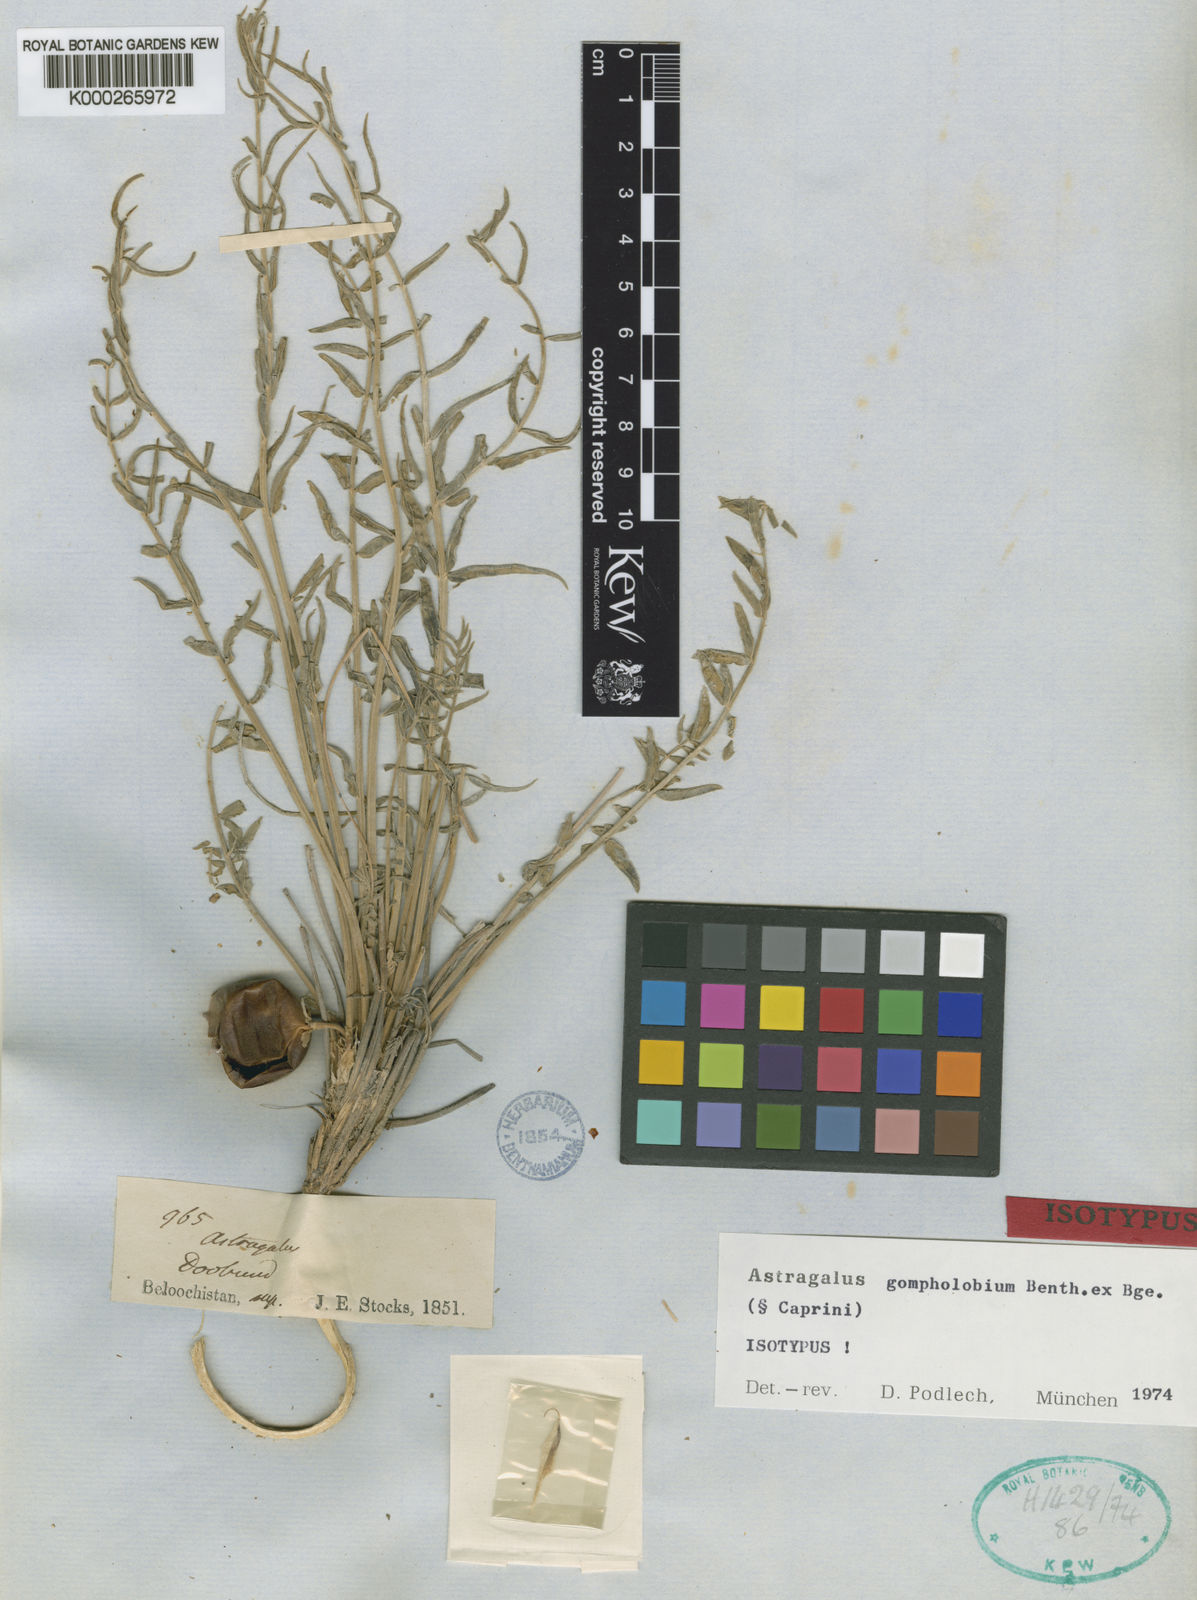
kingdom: Plantae
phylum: Tracheophyta
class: Magnoliopsida
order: Fabales
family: Fabaceae
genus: Astragalus
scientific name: Astragalus gompholobium
